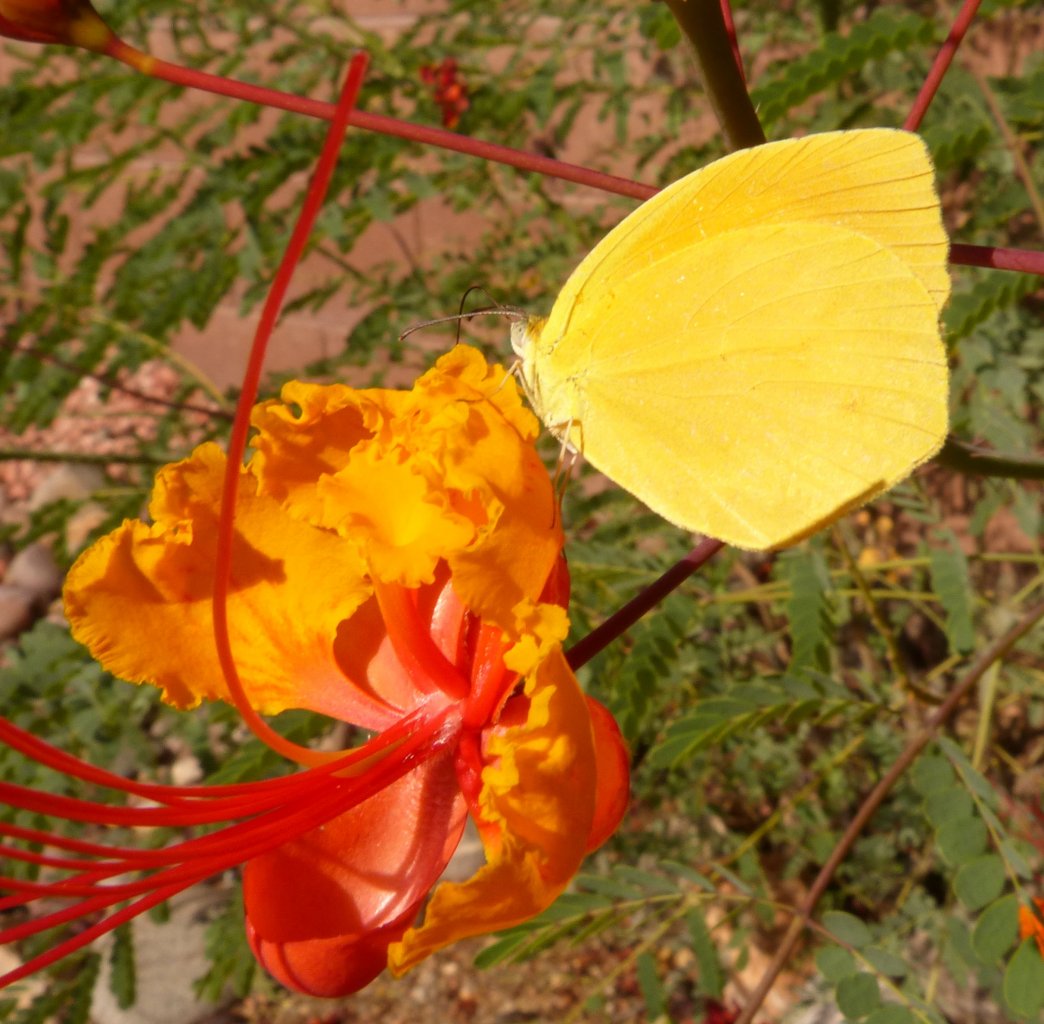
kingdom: Animalia
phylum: Arthropoda
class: Insecta
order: Lepidoptera
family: Pieridae
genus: Pyrisitia
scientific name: Pyrisitia proterpia
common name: Tailed Orange
